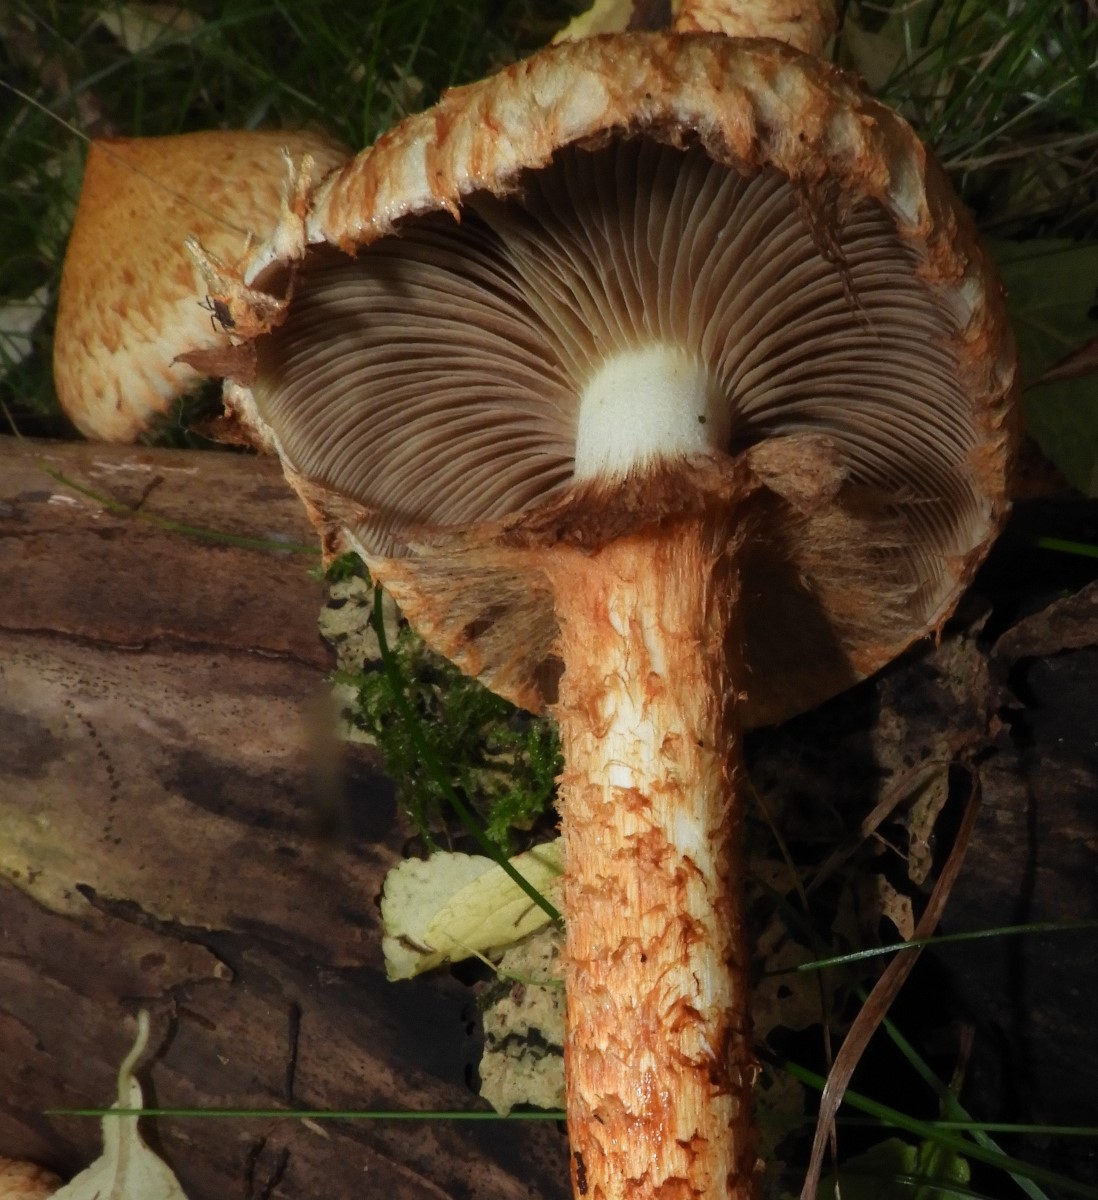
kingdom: Fungi
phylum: Basidiomycota
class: Agaricomycetes
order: Agaricales
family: Strophariaceae
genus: Pholiota
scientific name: Pholiota squarrosa
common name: krumskællet skælhat
